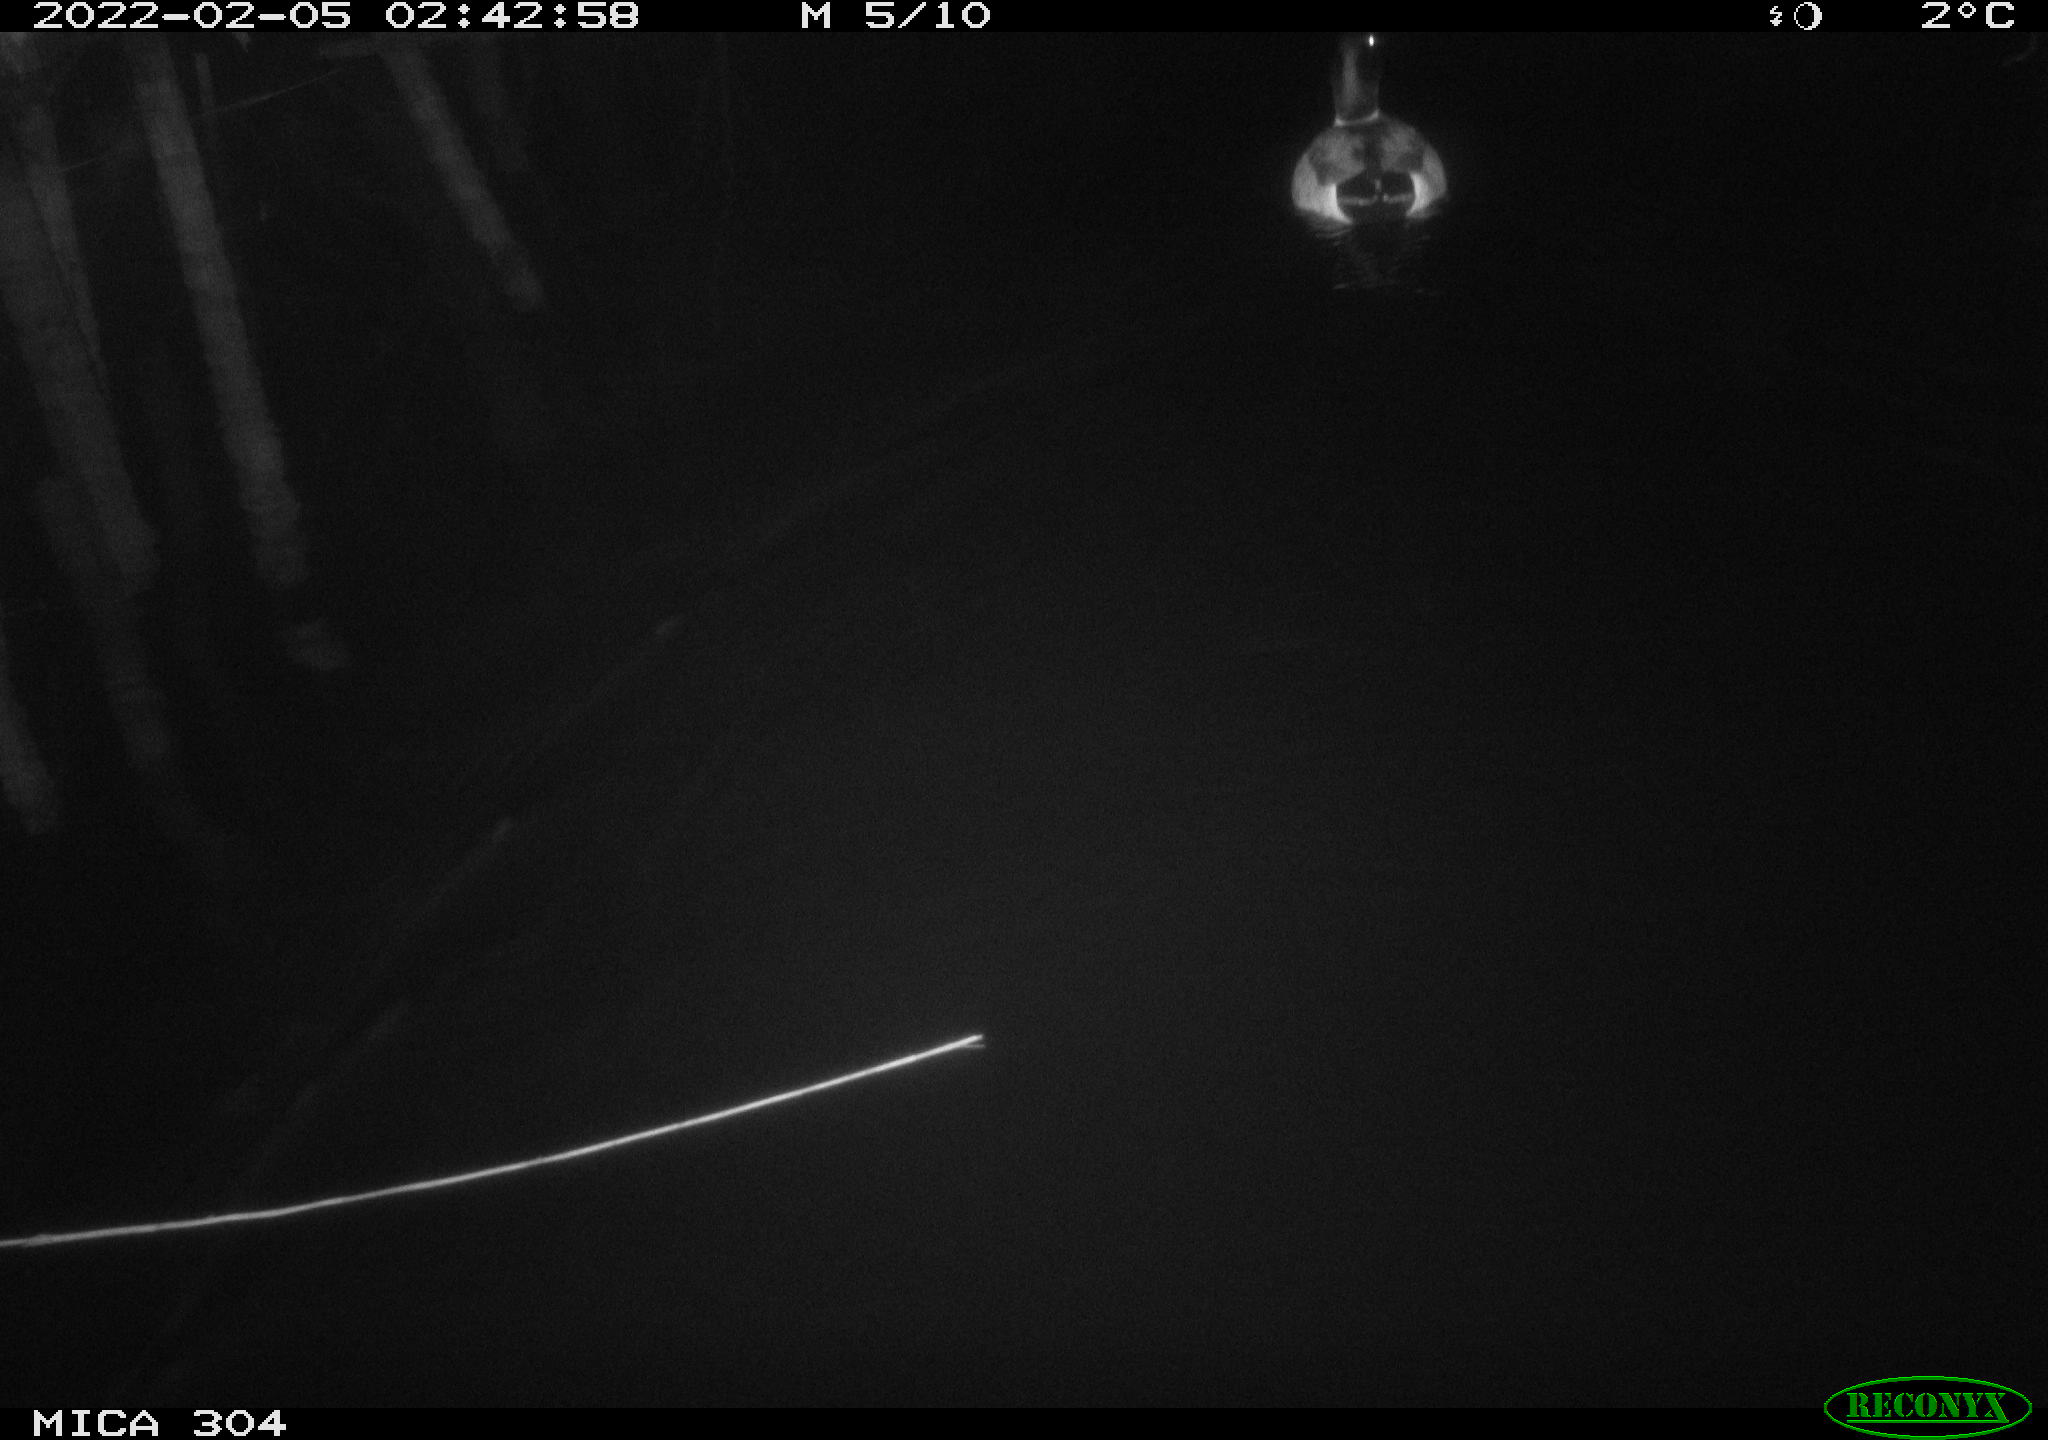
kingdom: Animalia
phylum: Chordata
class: Aves
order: Anseriformes
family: Anatidae
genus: Anas
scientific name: Anas platyrhynchos
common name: Mallard
